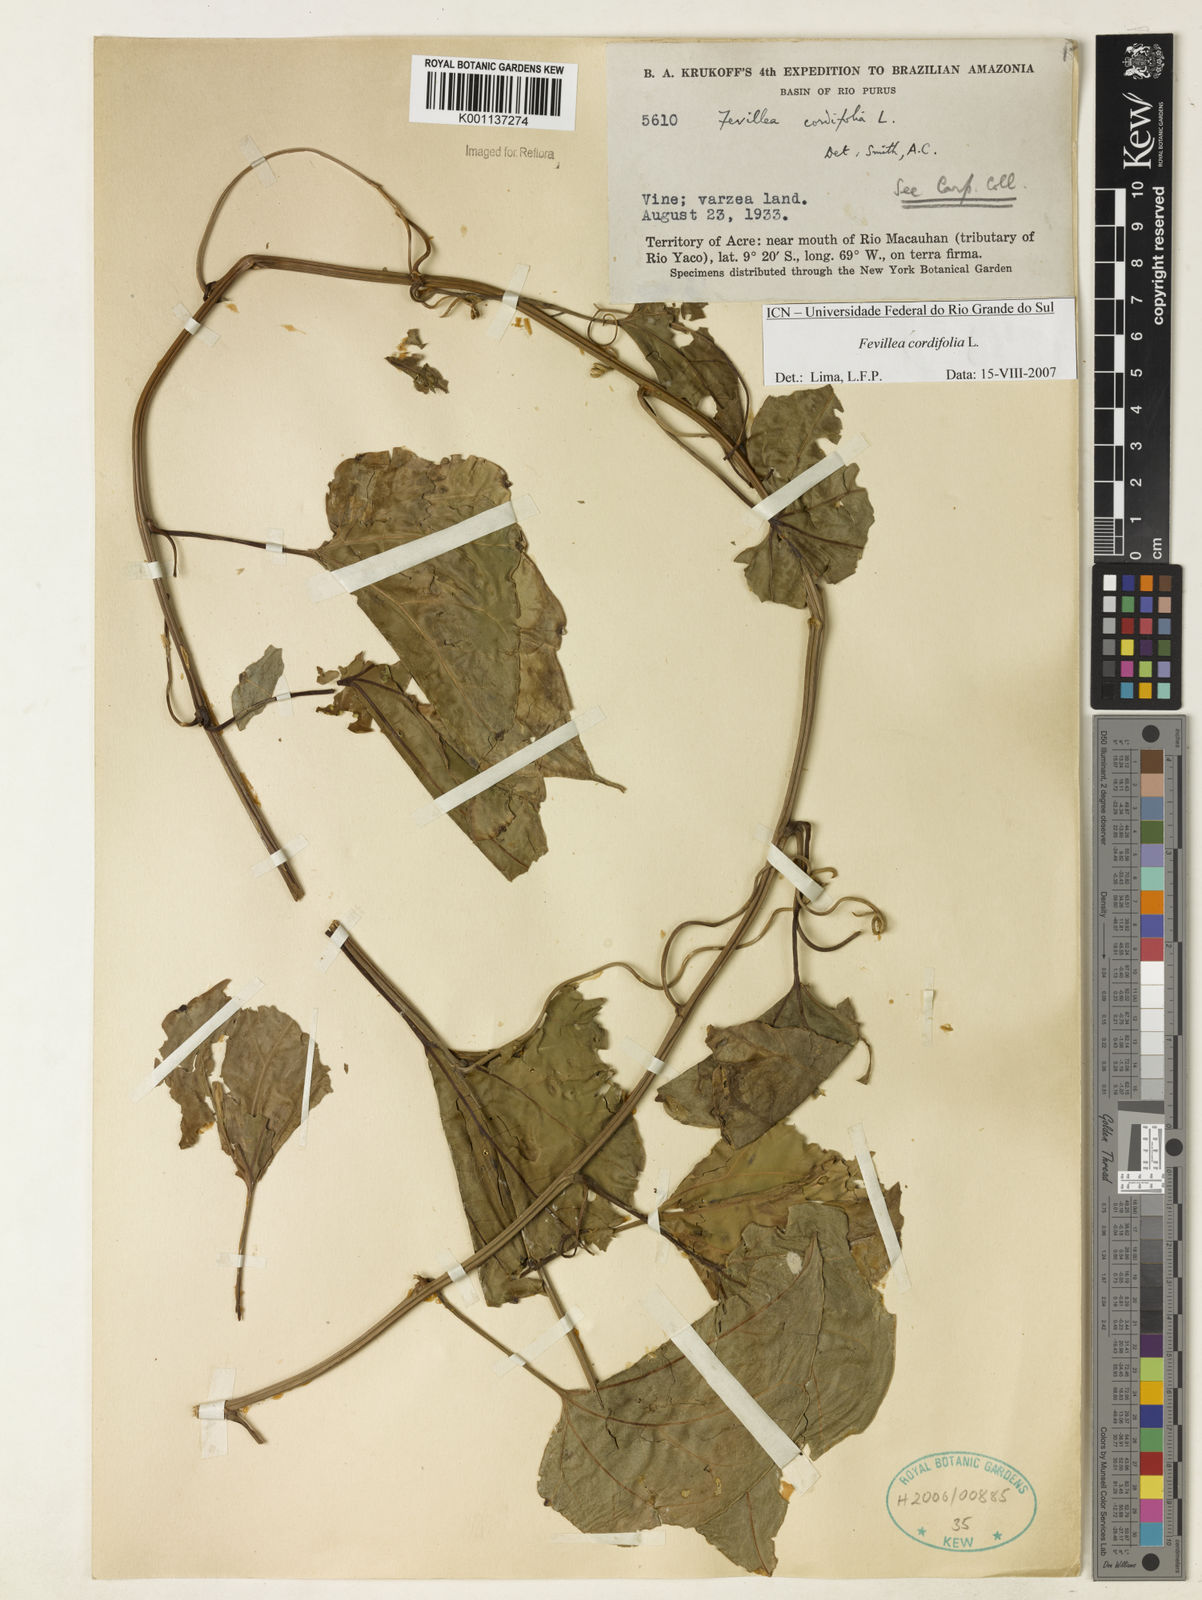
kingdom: Plantae
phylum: Tracheophyta
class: Magnoliopsida
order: Cucurbitales
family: Cucurbitaceae
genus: Fevillea
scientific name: Fevillea cordifolia
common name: Antidote-vine
